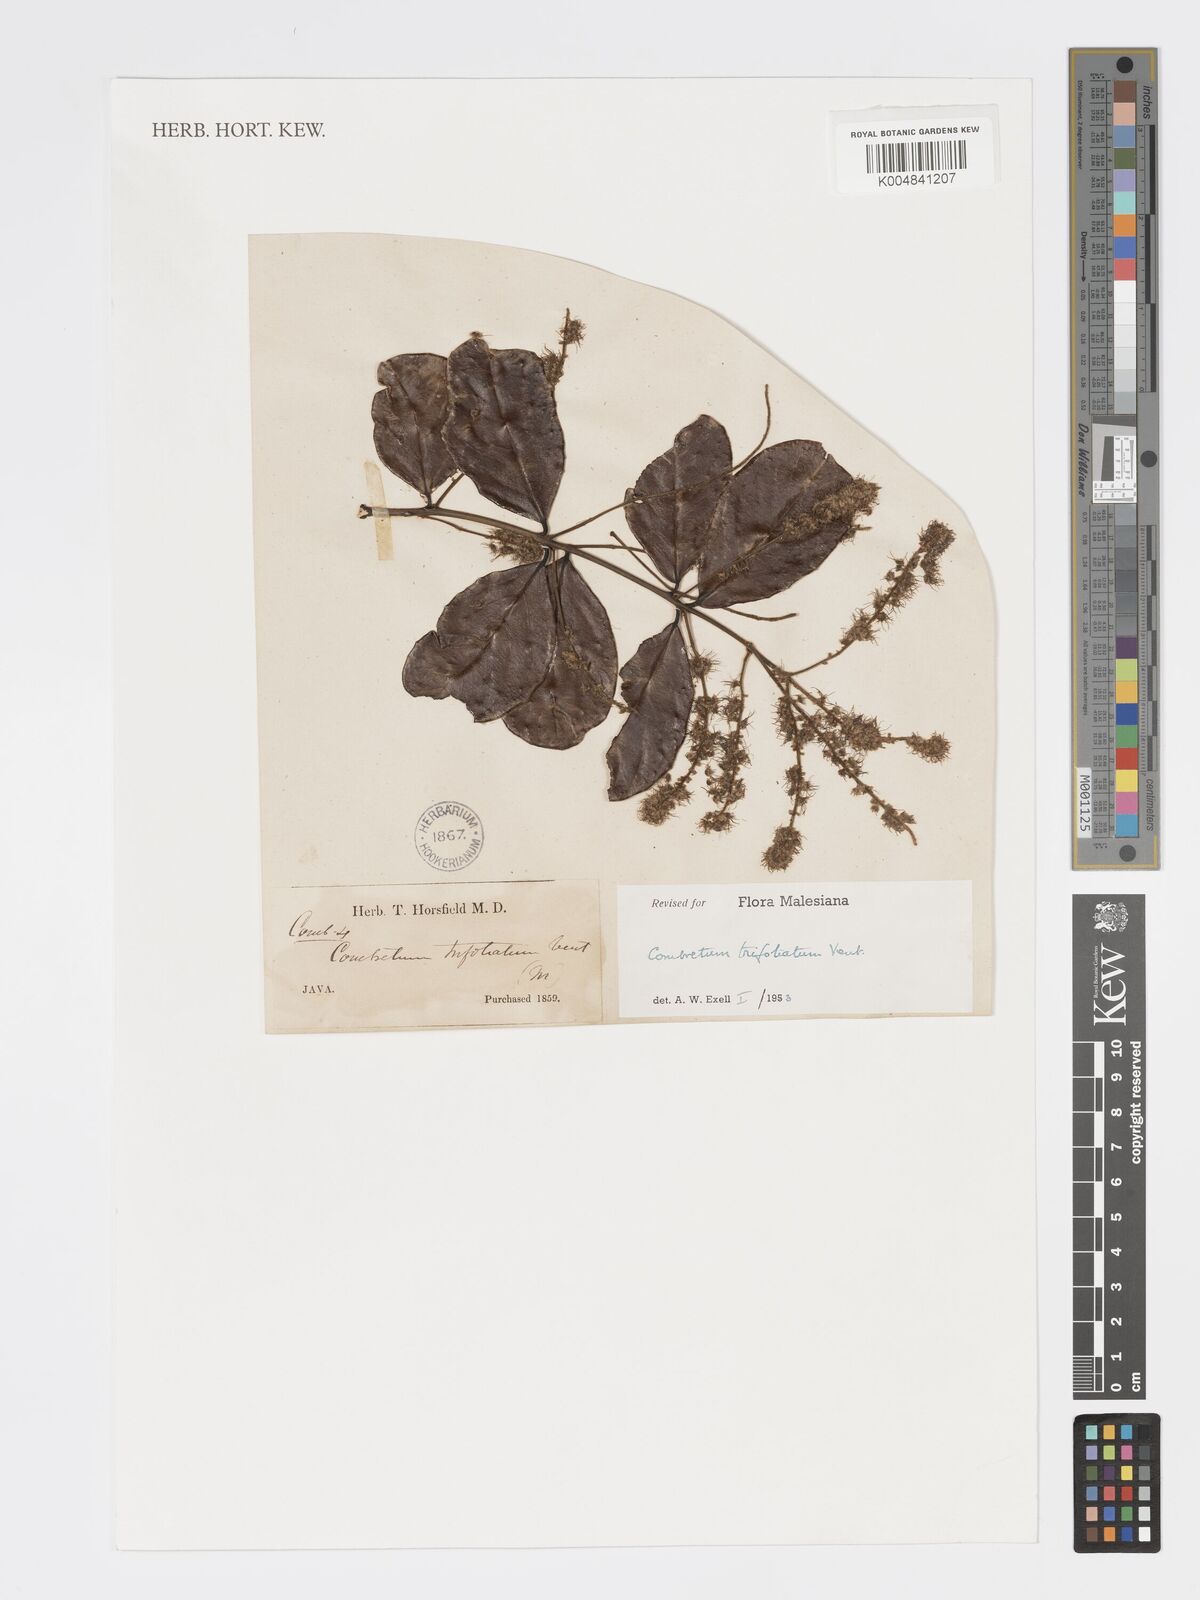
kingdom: Plantae
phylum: Tracheophyta
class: Magnoliopsida
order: Myrtales
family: Combretaceae
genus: Combretum
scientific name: Combretum trifoliatum
